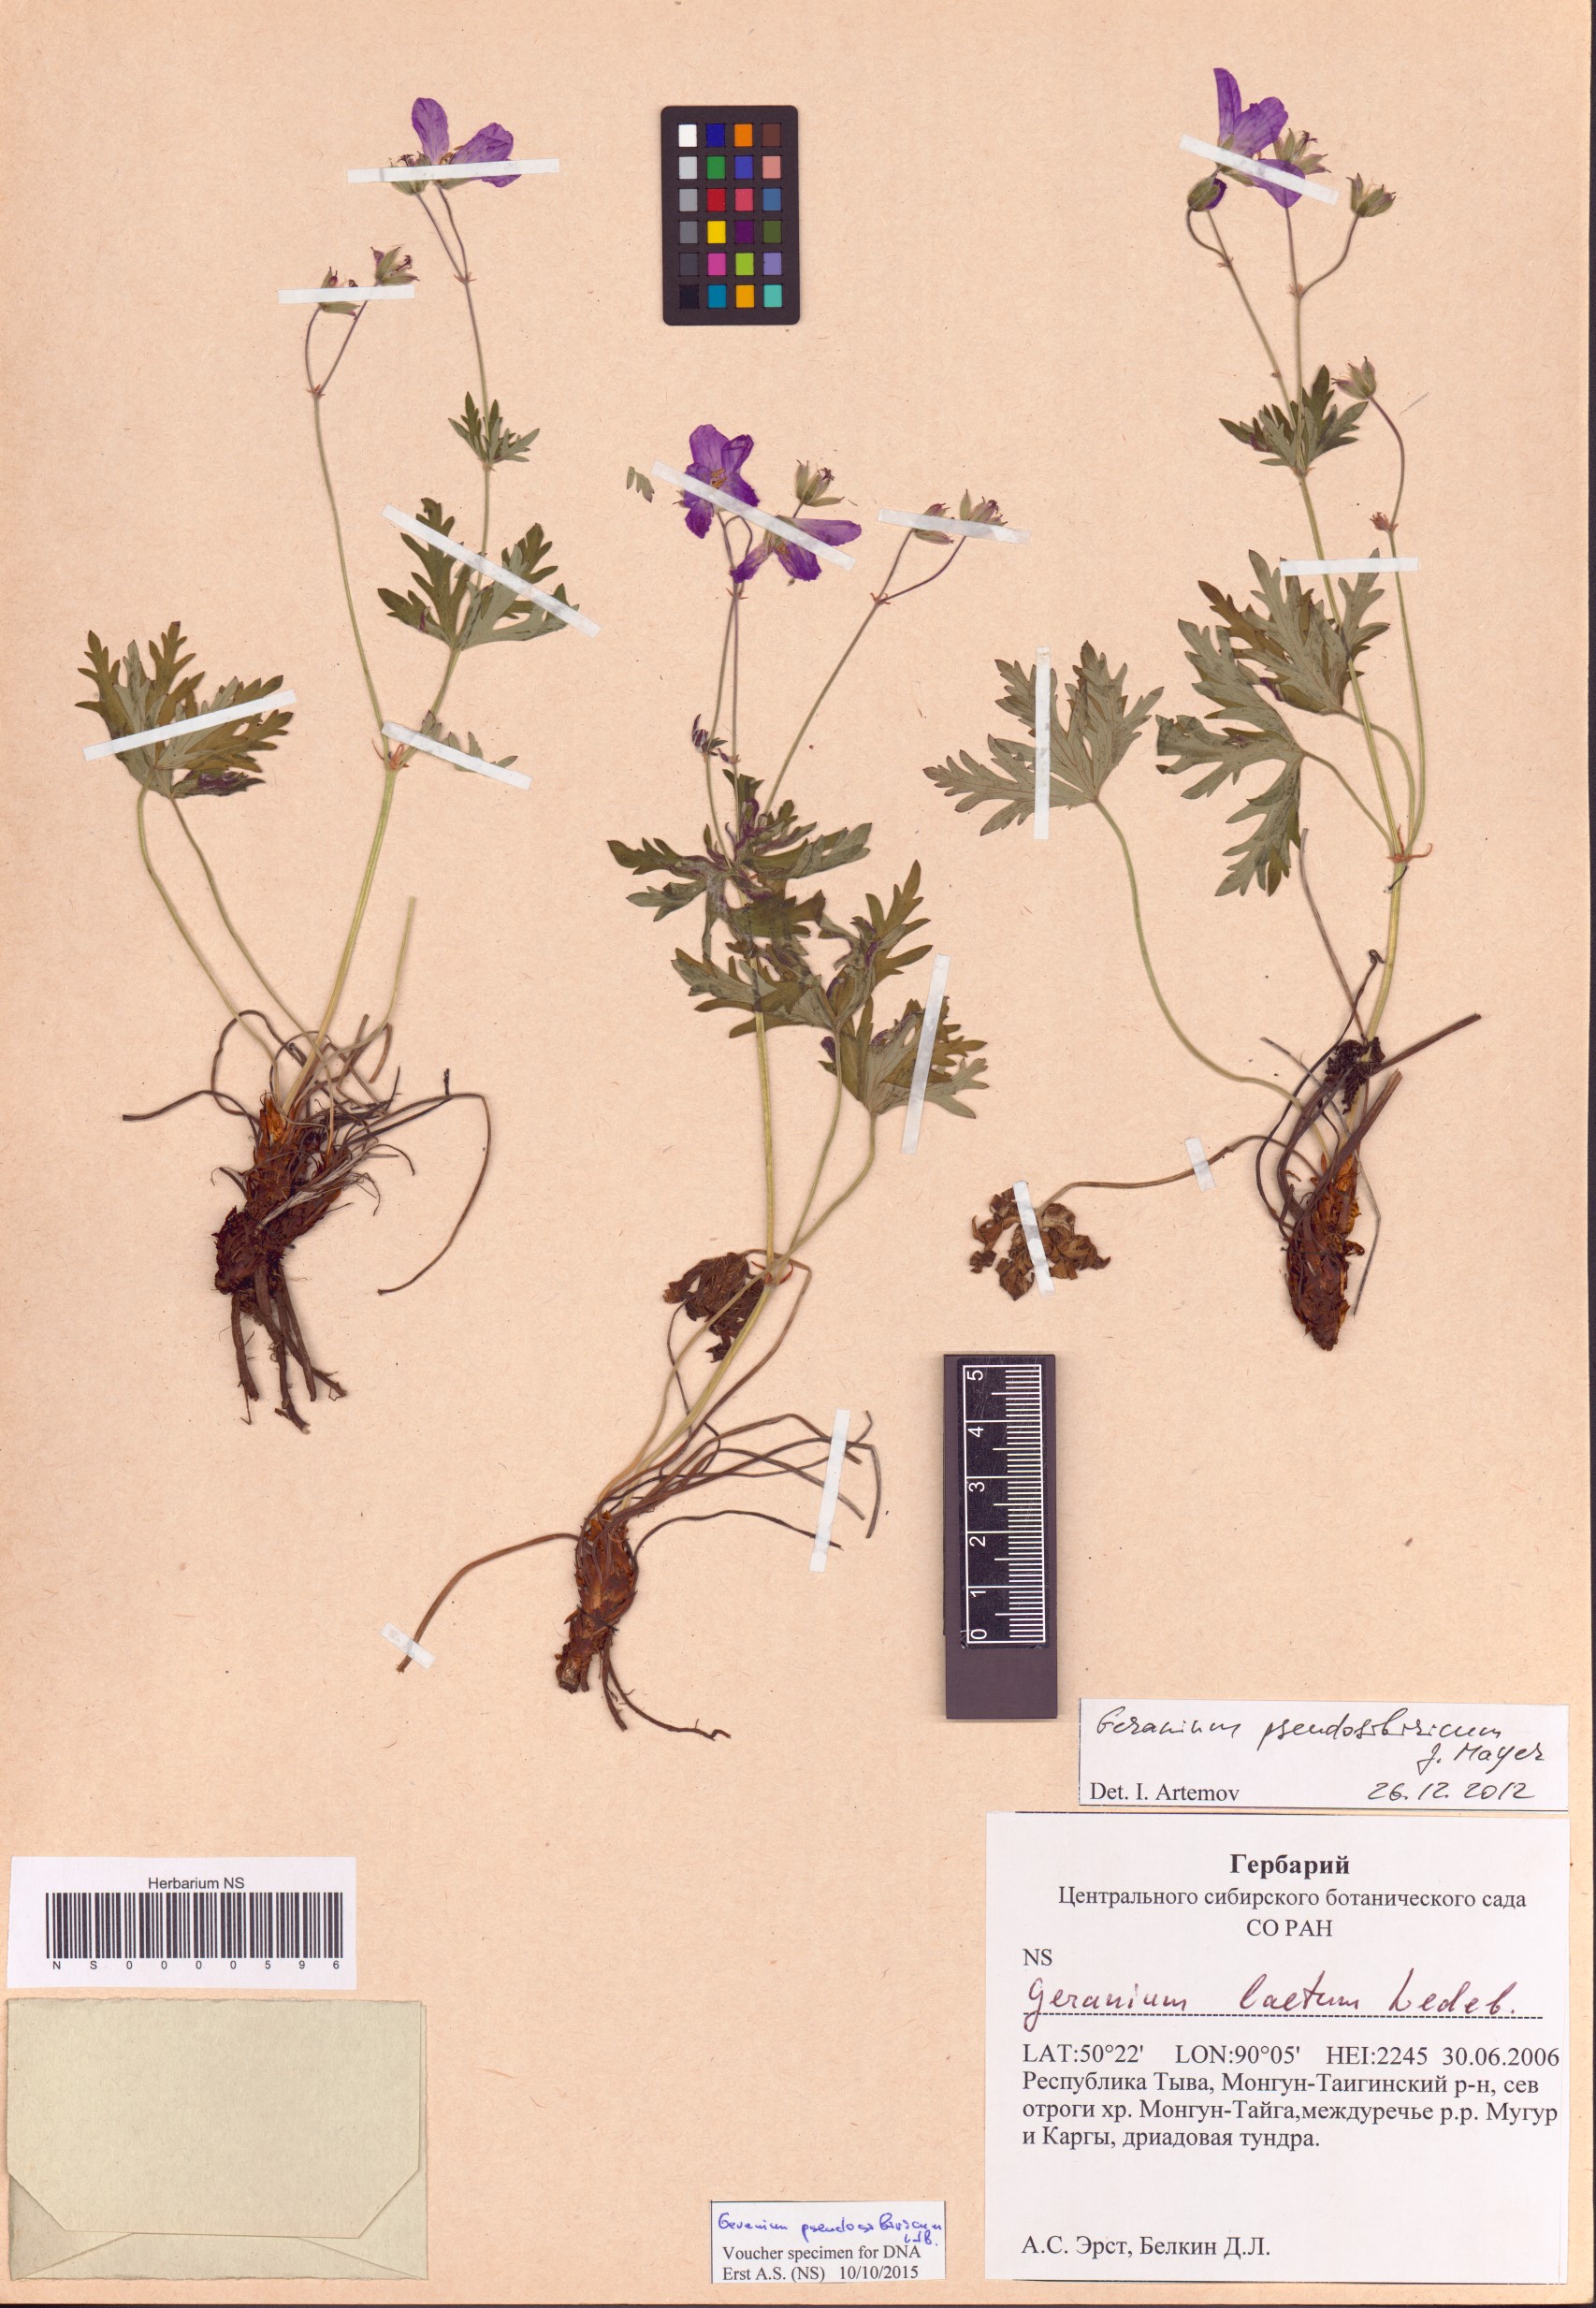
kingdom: Plantae
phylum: Tracheophyta
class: Magnoliopsida
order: Geraniales
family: Geraniaceae
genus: Geranium
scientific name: Geranium pseudosibiricum
